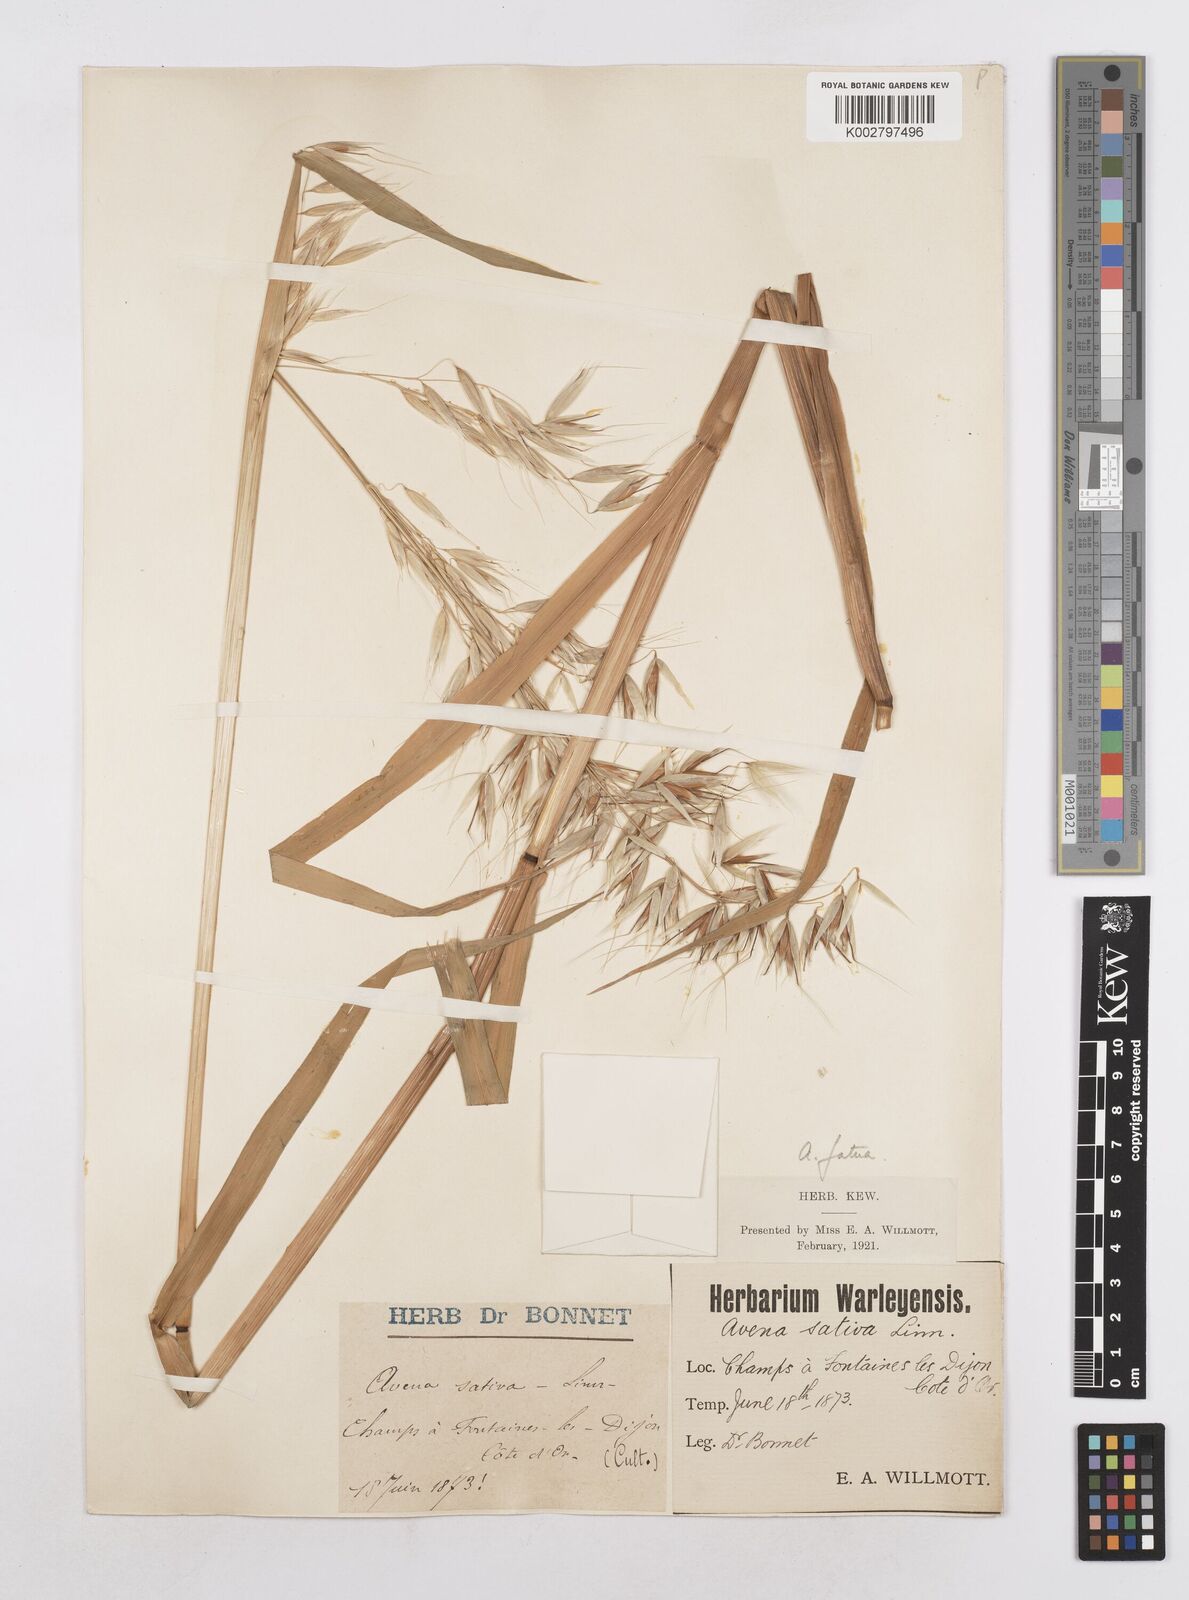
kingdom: Plantae
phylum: Tracheophyta
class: Liliopsida
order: Poales
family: Poaceae
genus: Avena
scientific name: Avena fatua
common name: Wild oat
